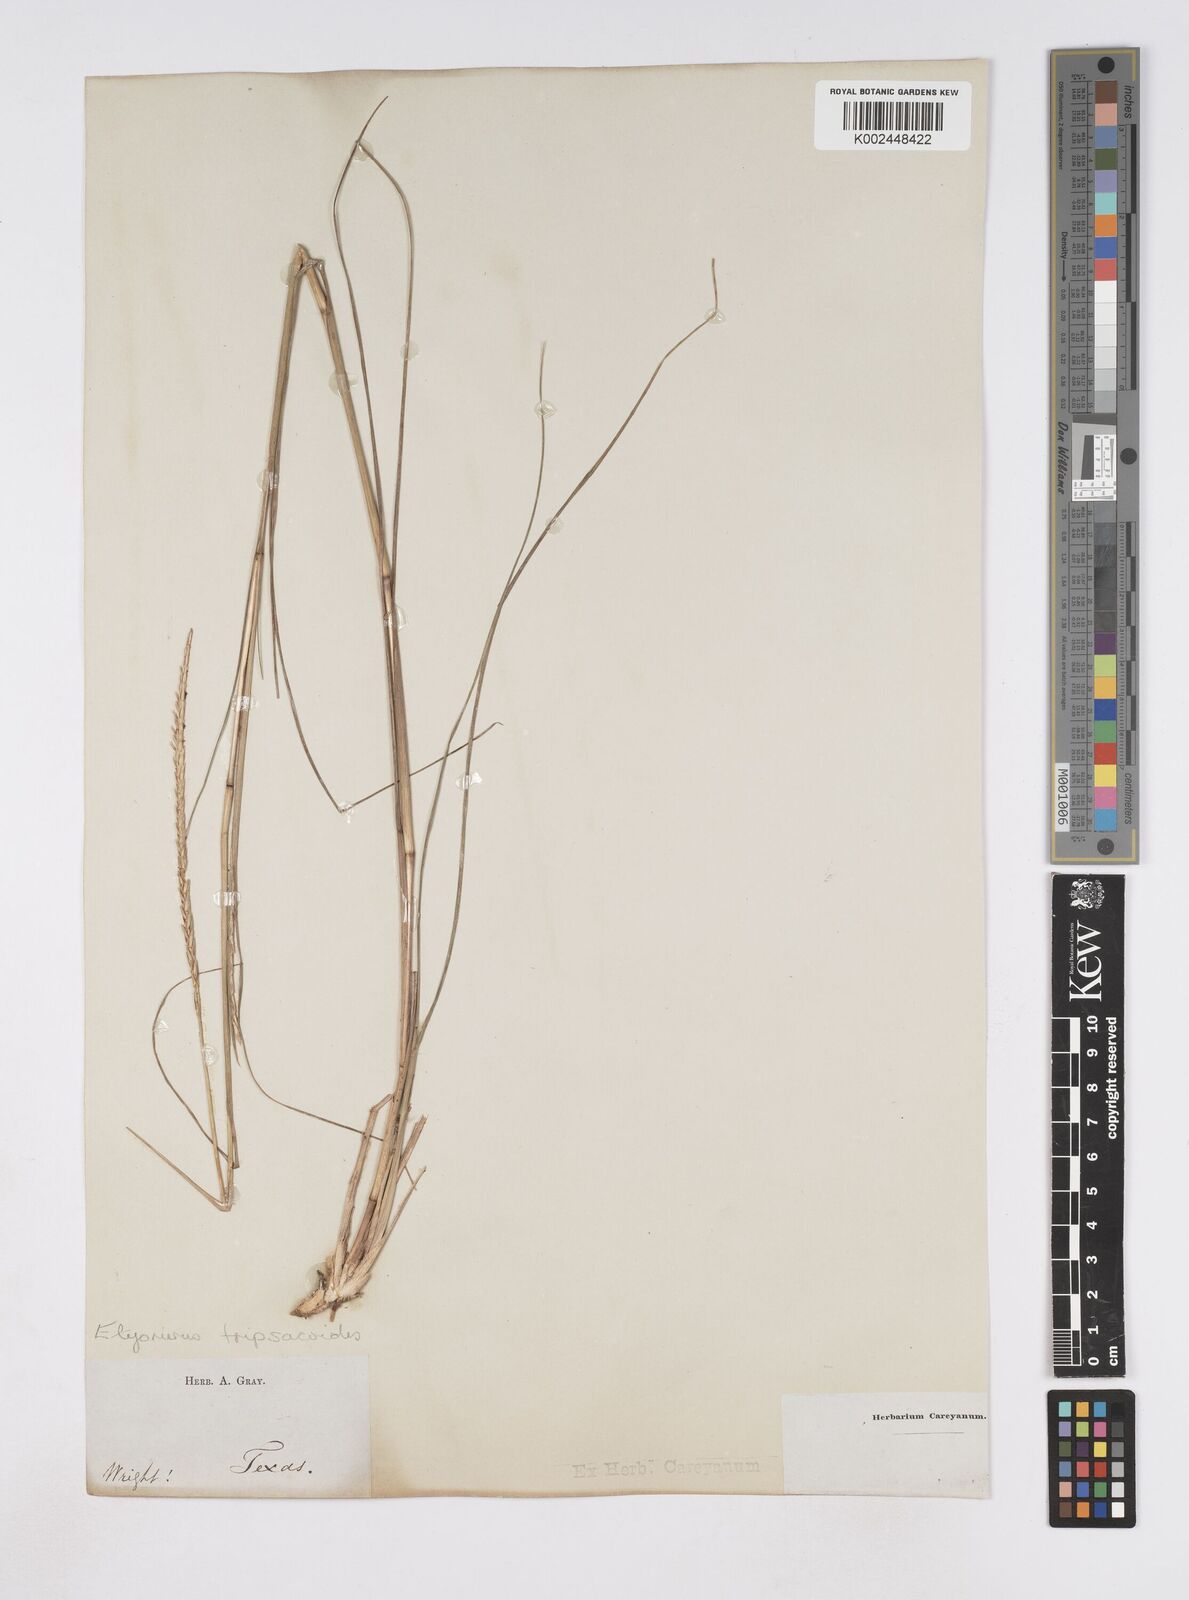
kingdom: Plantae
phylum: Tracheophyta
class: Liliopsida
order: Poales
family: Poaceae
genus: Elionurus
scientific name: Elionurus tripsacoides
